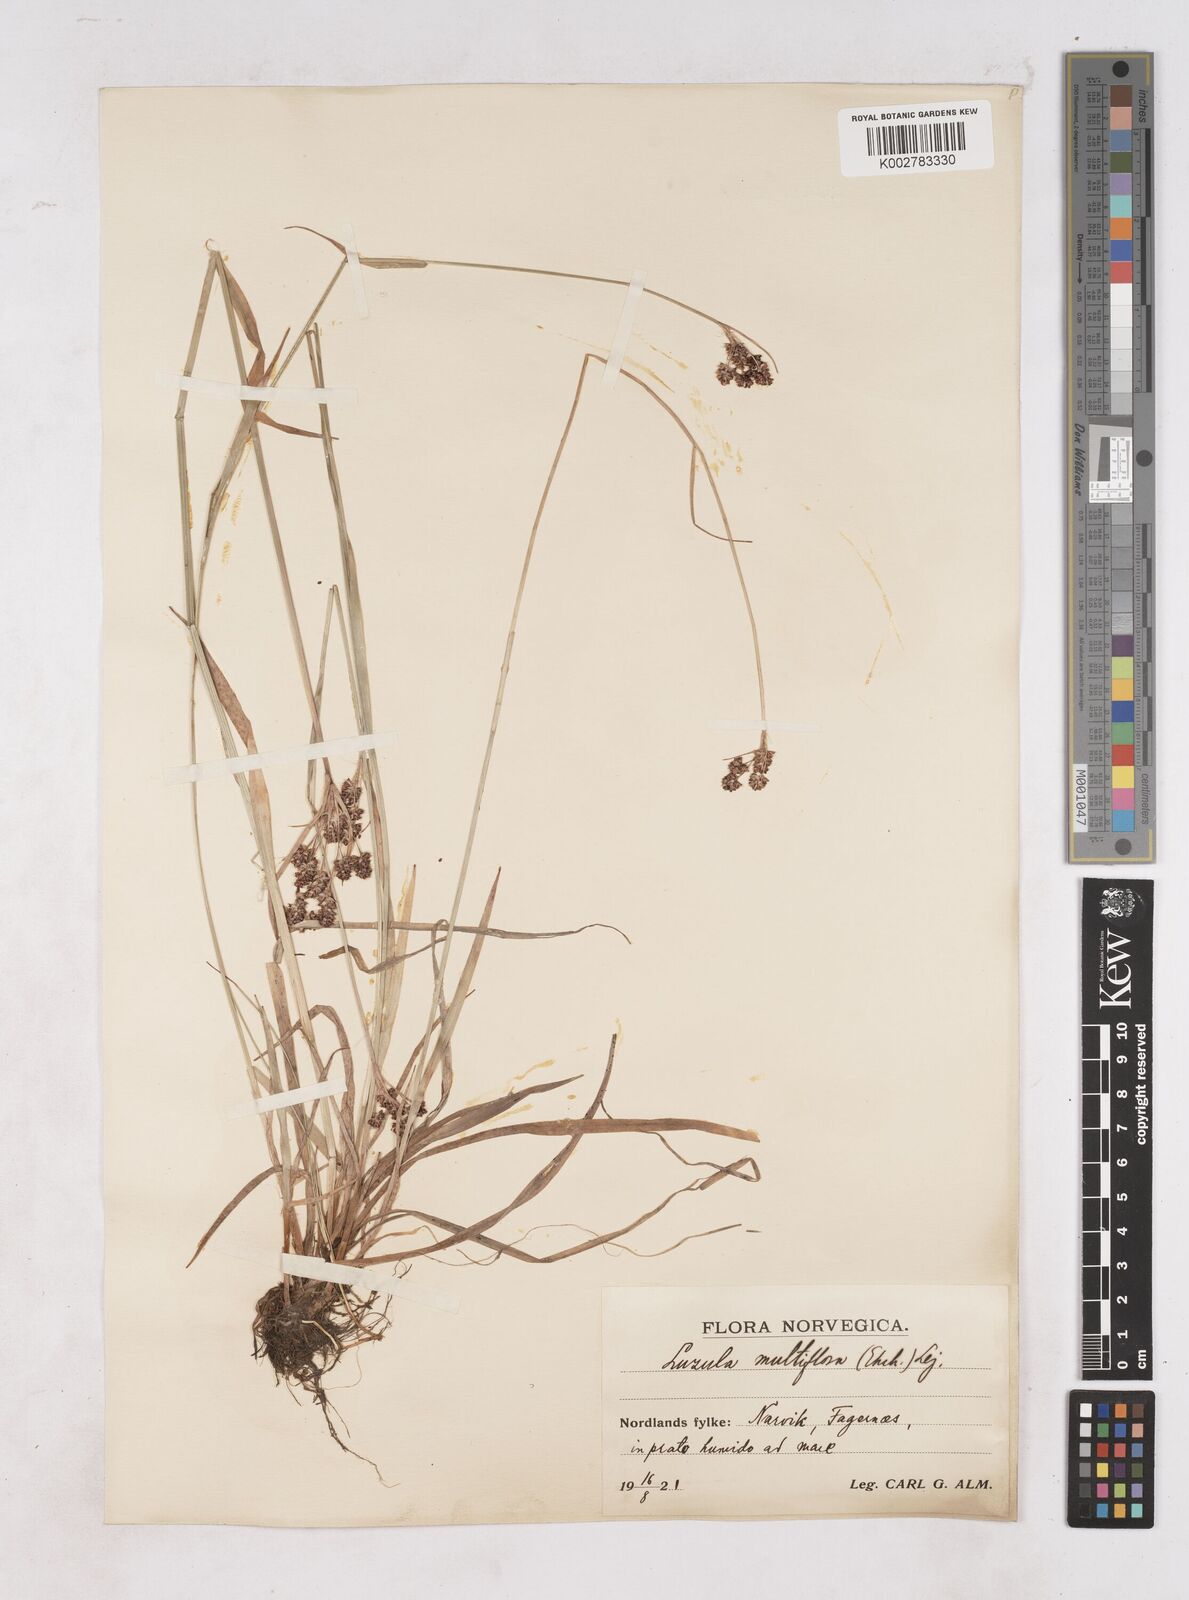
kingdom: Plantae
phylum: Tracheophyta
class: Liliopsida
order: Poales
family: Juncaceae
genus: Luzula
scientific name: Luzula multiflora
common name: Heath wood-rush
